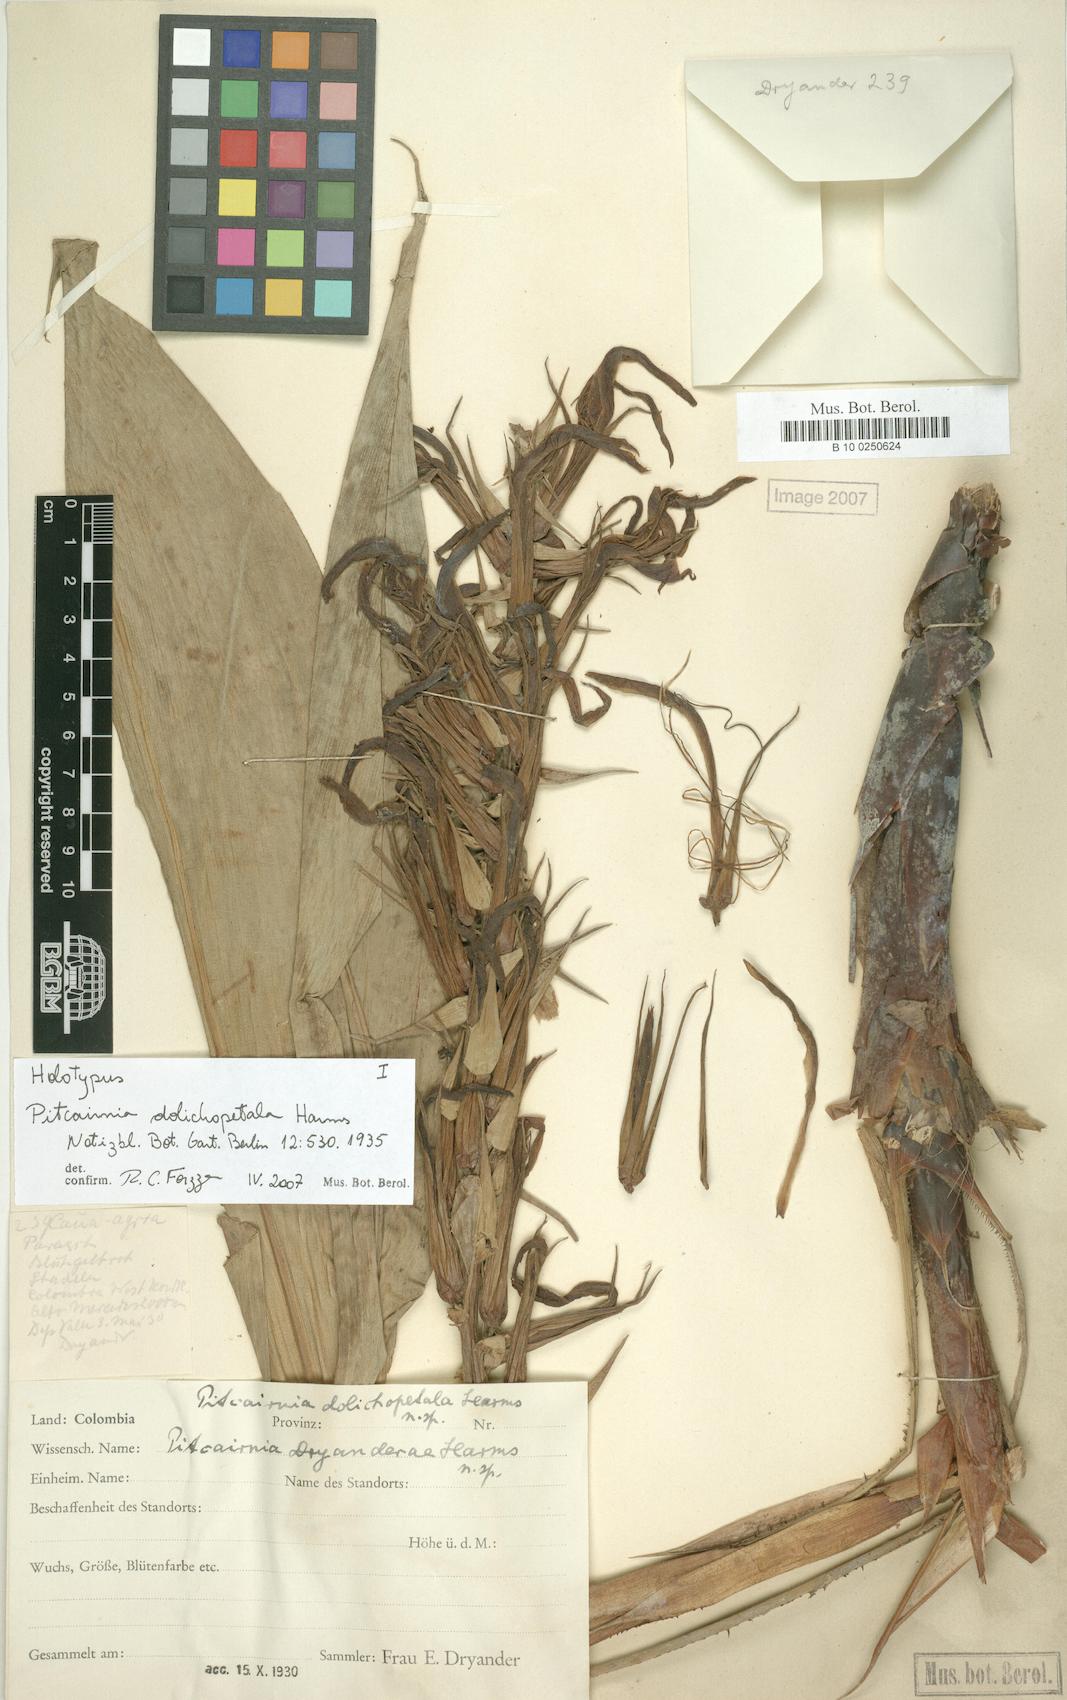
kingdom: Plantae
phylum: Tracheophyta
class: Liliopsida
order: Poales
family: Bromeliaceae
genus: Pitcairnia
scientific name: Pitcairnia dolichopetala
